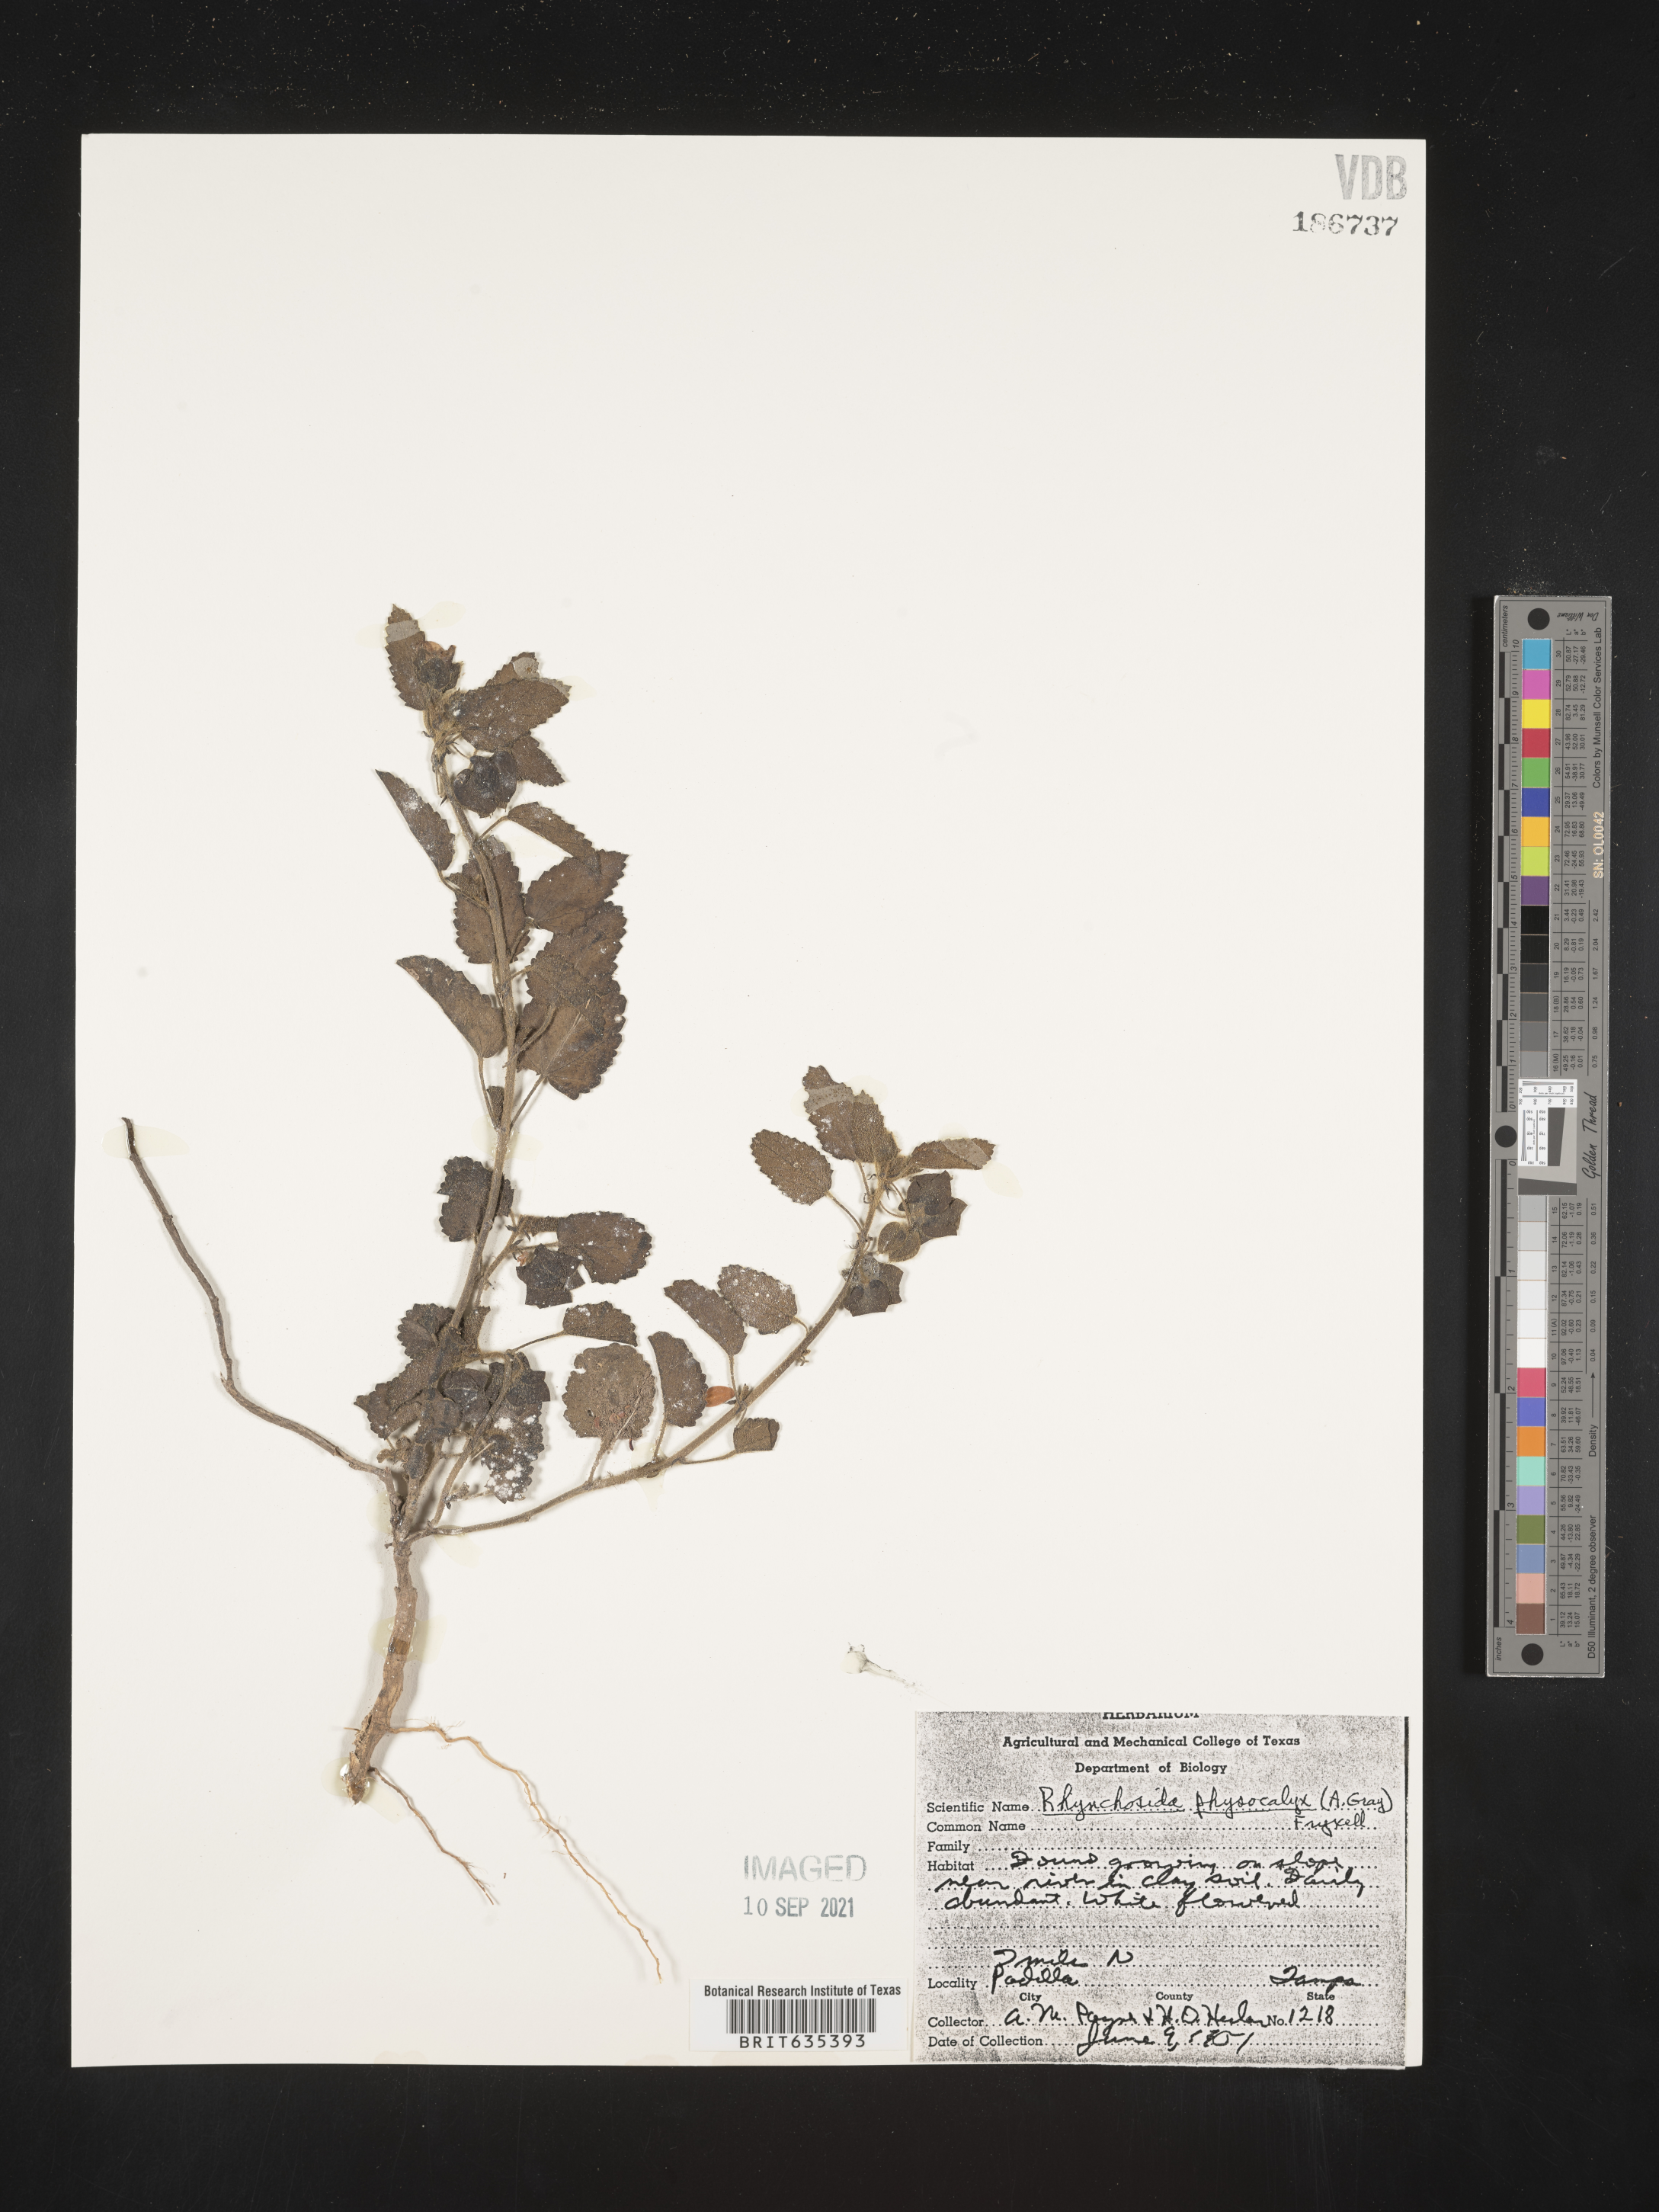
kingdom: Plantae
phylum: Tracheophyta
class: Magnoliopsida
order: Malvales
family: Malvaceae
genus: Rhynchosida
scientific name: Rhynchosida
